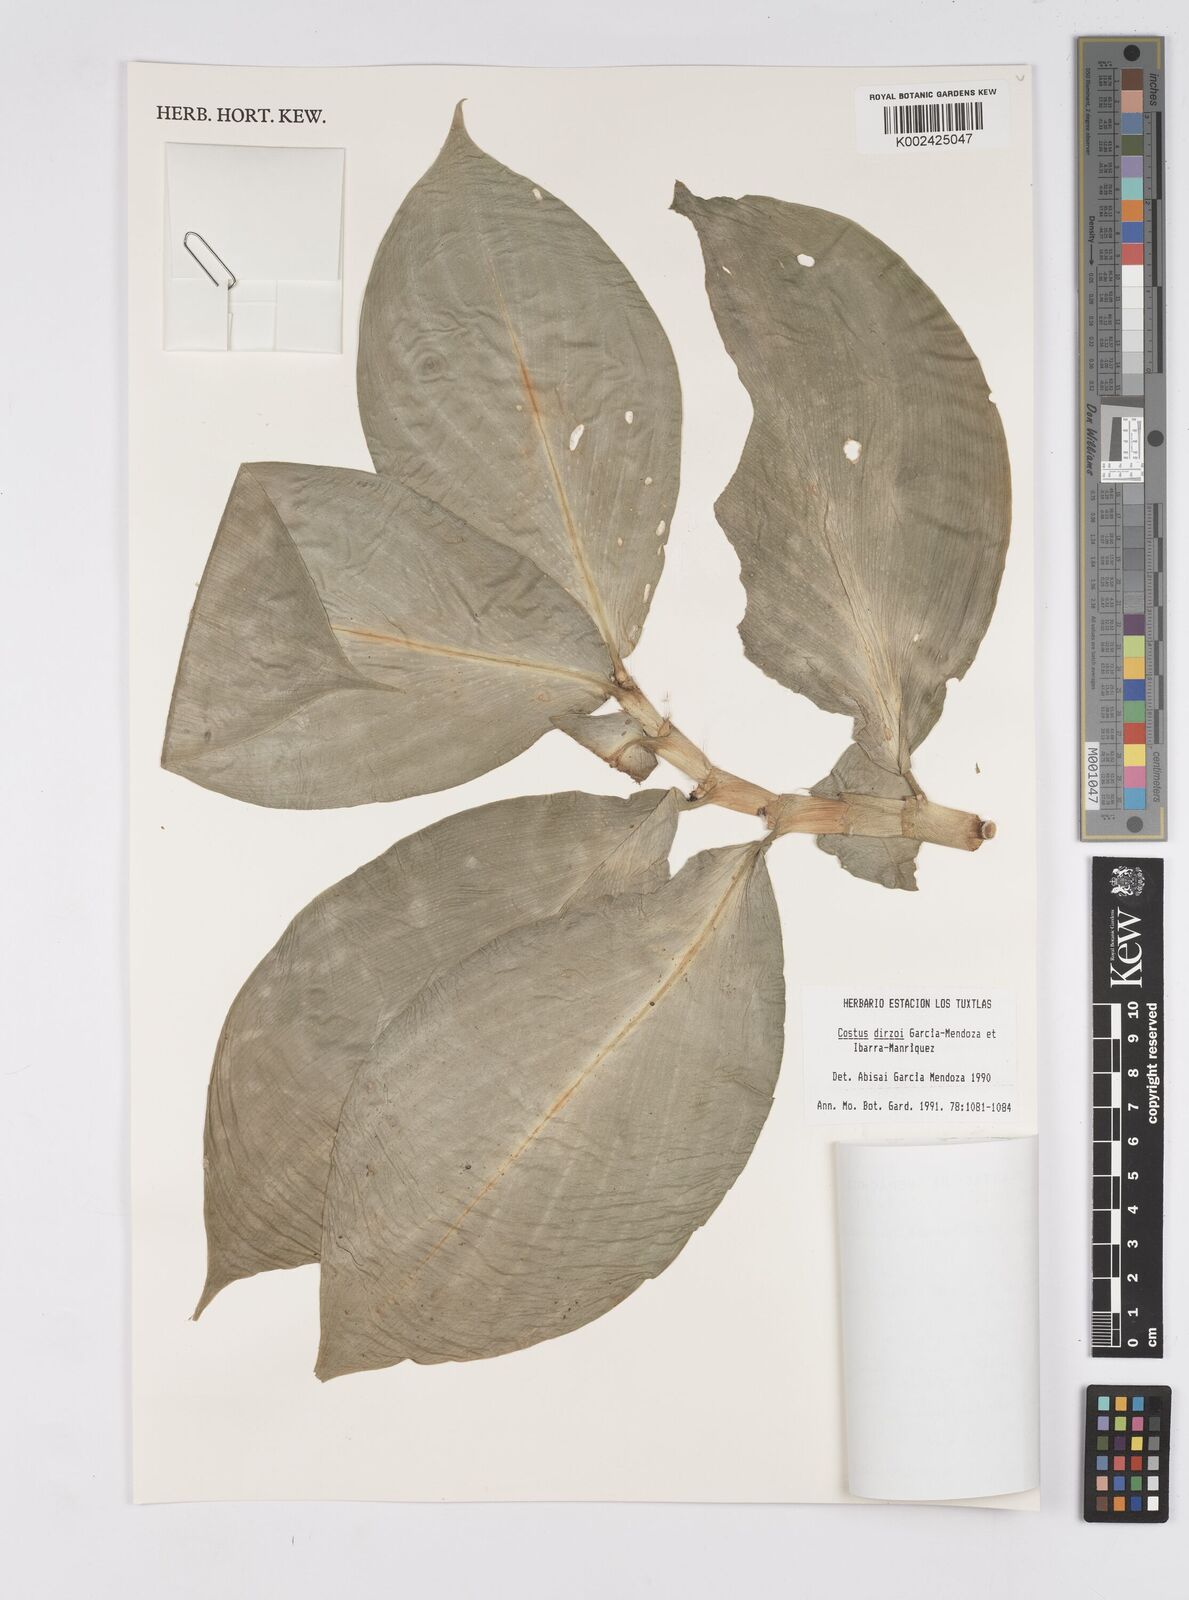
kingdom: Plantae
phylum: Tracheophyta
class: Liliopsida
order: Zingiberales
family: Costaceae
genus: Costus
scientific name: Costus dirzoi
